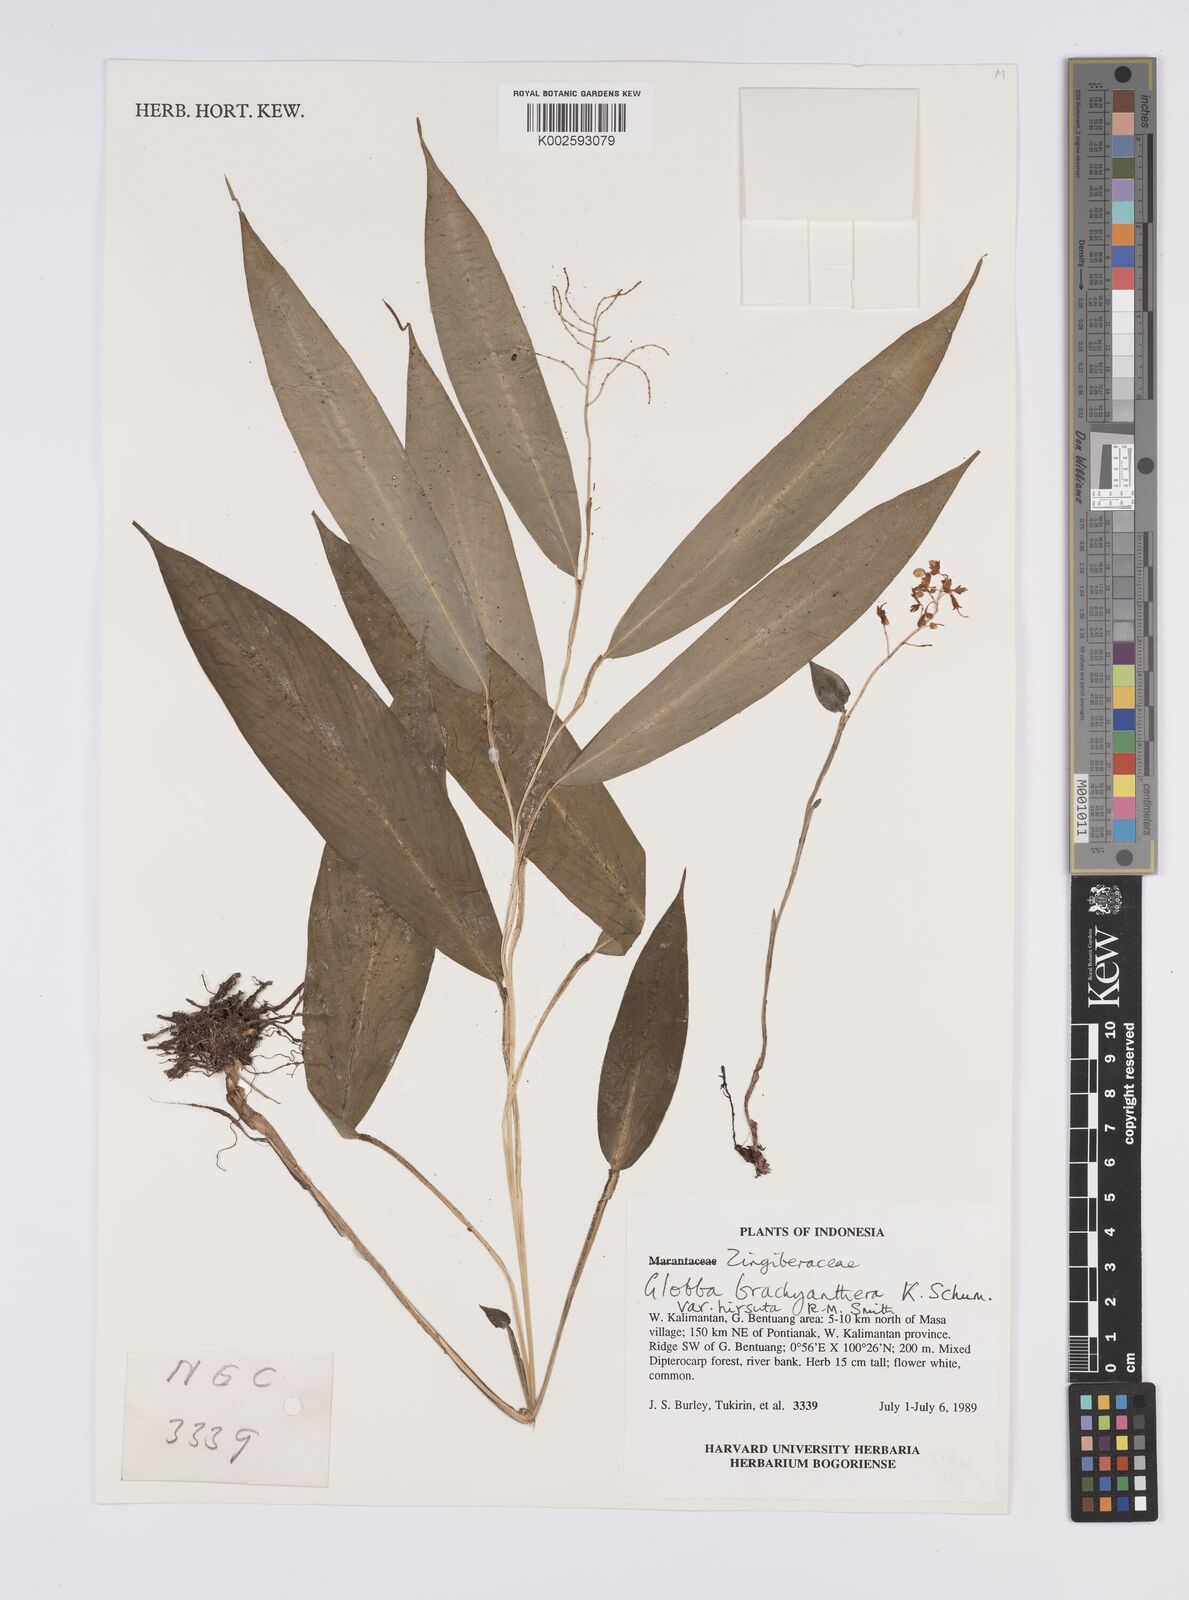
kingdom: Plantae
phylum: Tracheophyta
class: Liliopsida
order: Zingiberales
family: Zingiberaceae
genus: Globba
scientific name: Globba brachyanthera
